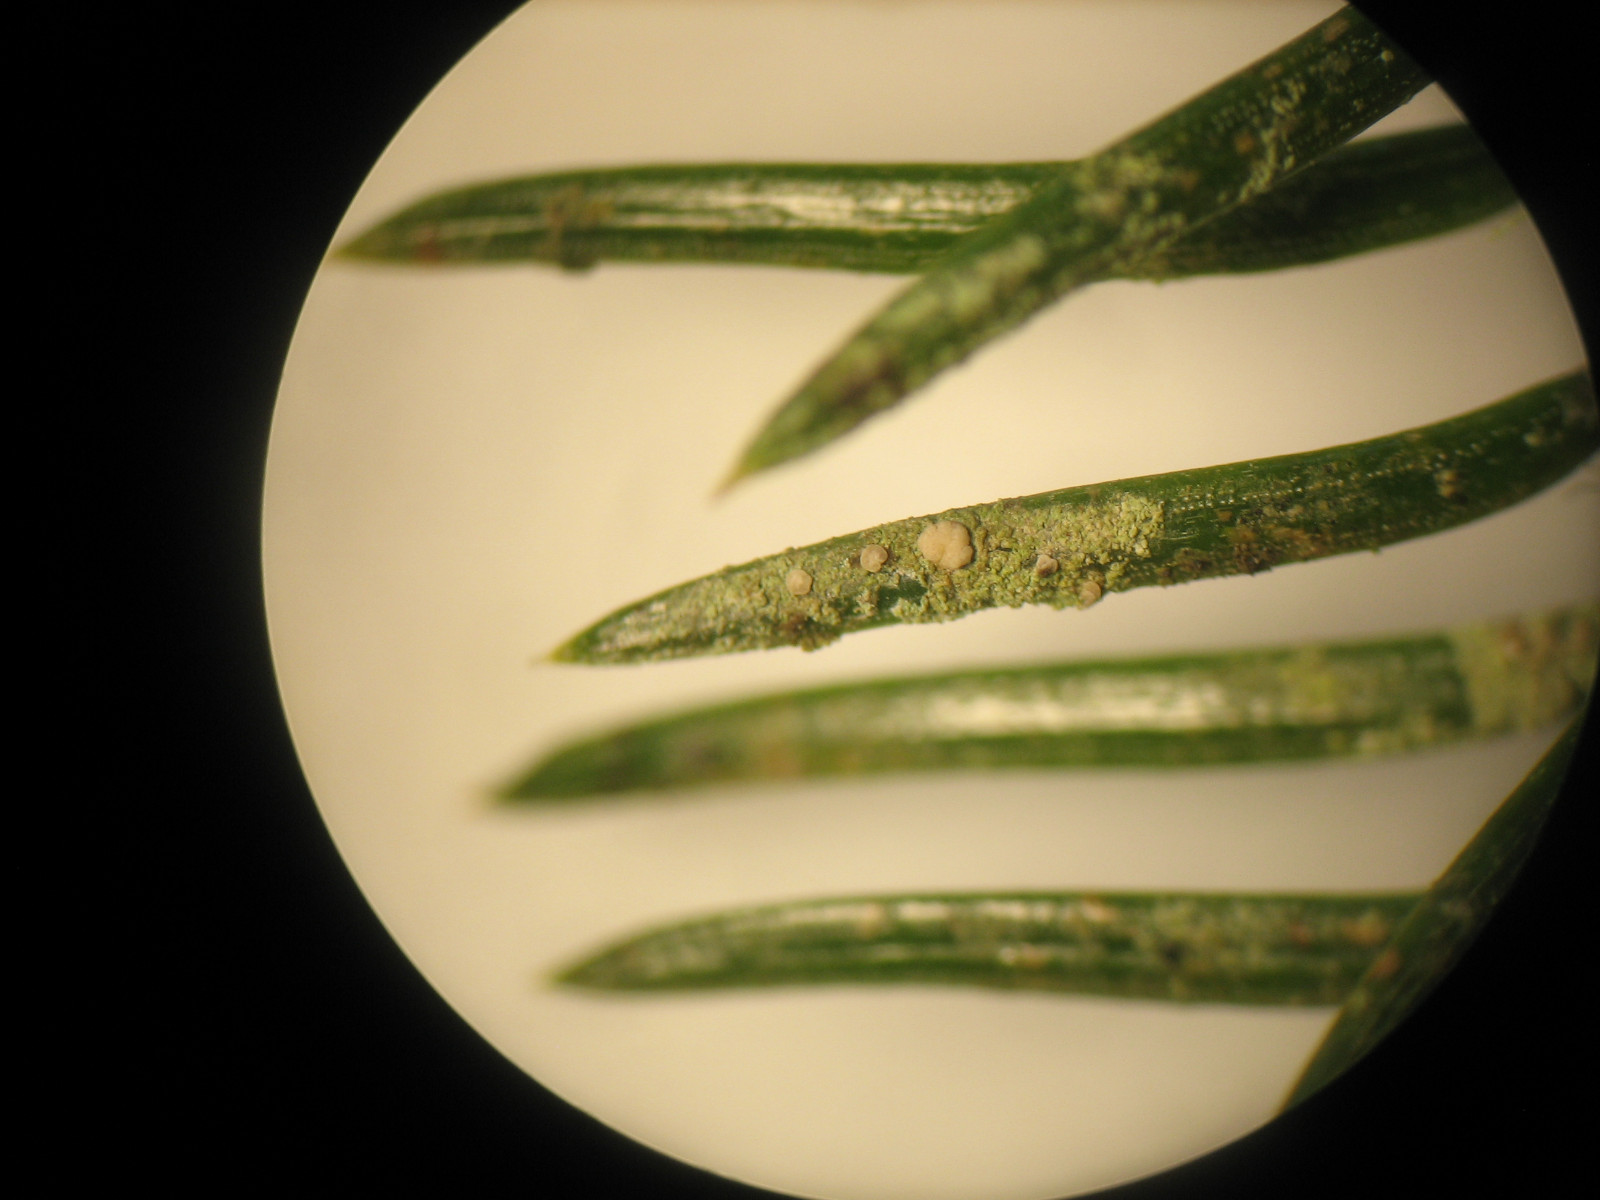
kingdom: Fungi
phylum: Ascomycota
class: Lecanoromycetes
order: Lecanorales
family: Byssolomataceae
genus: Fellhanera
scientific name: Fellhanera bouteillei
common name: flaske-tallerkenlav
